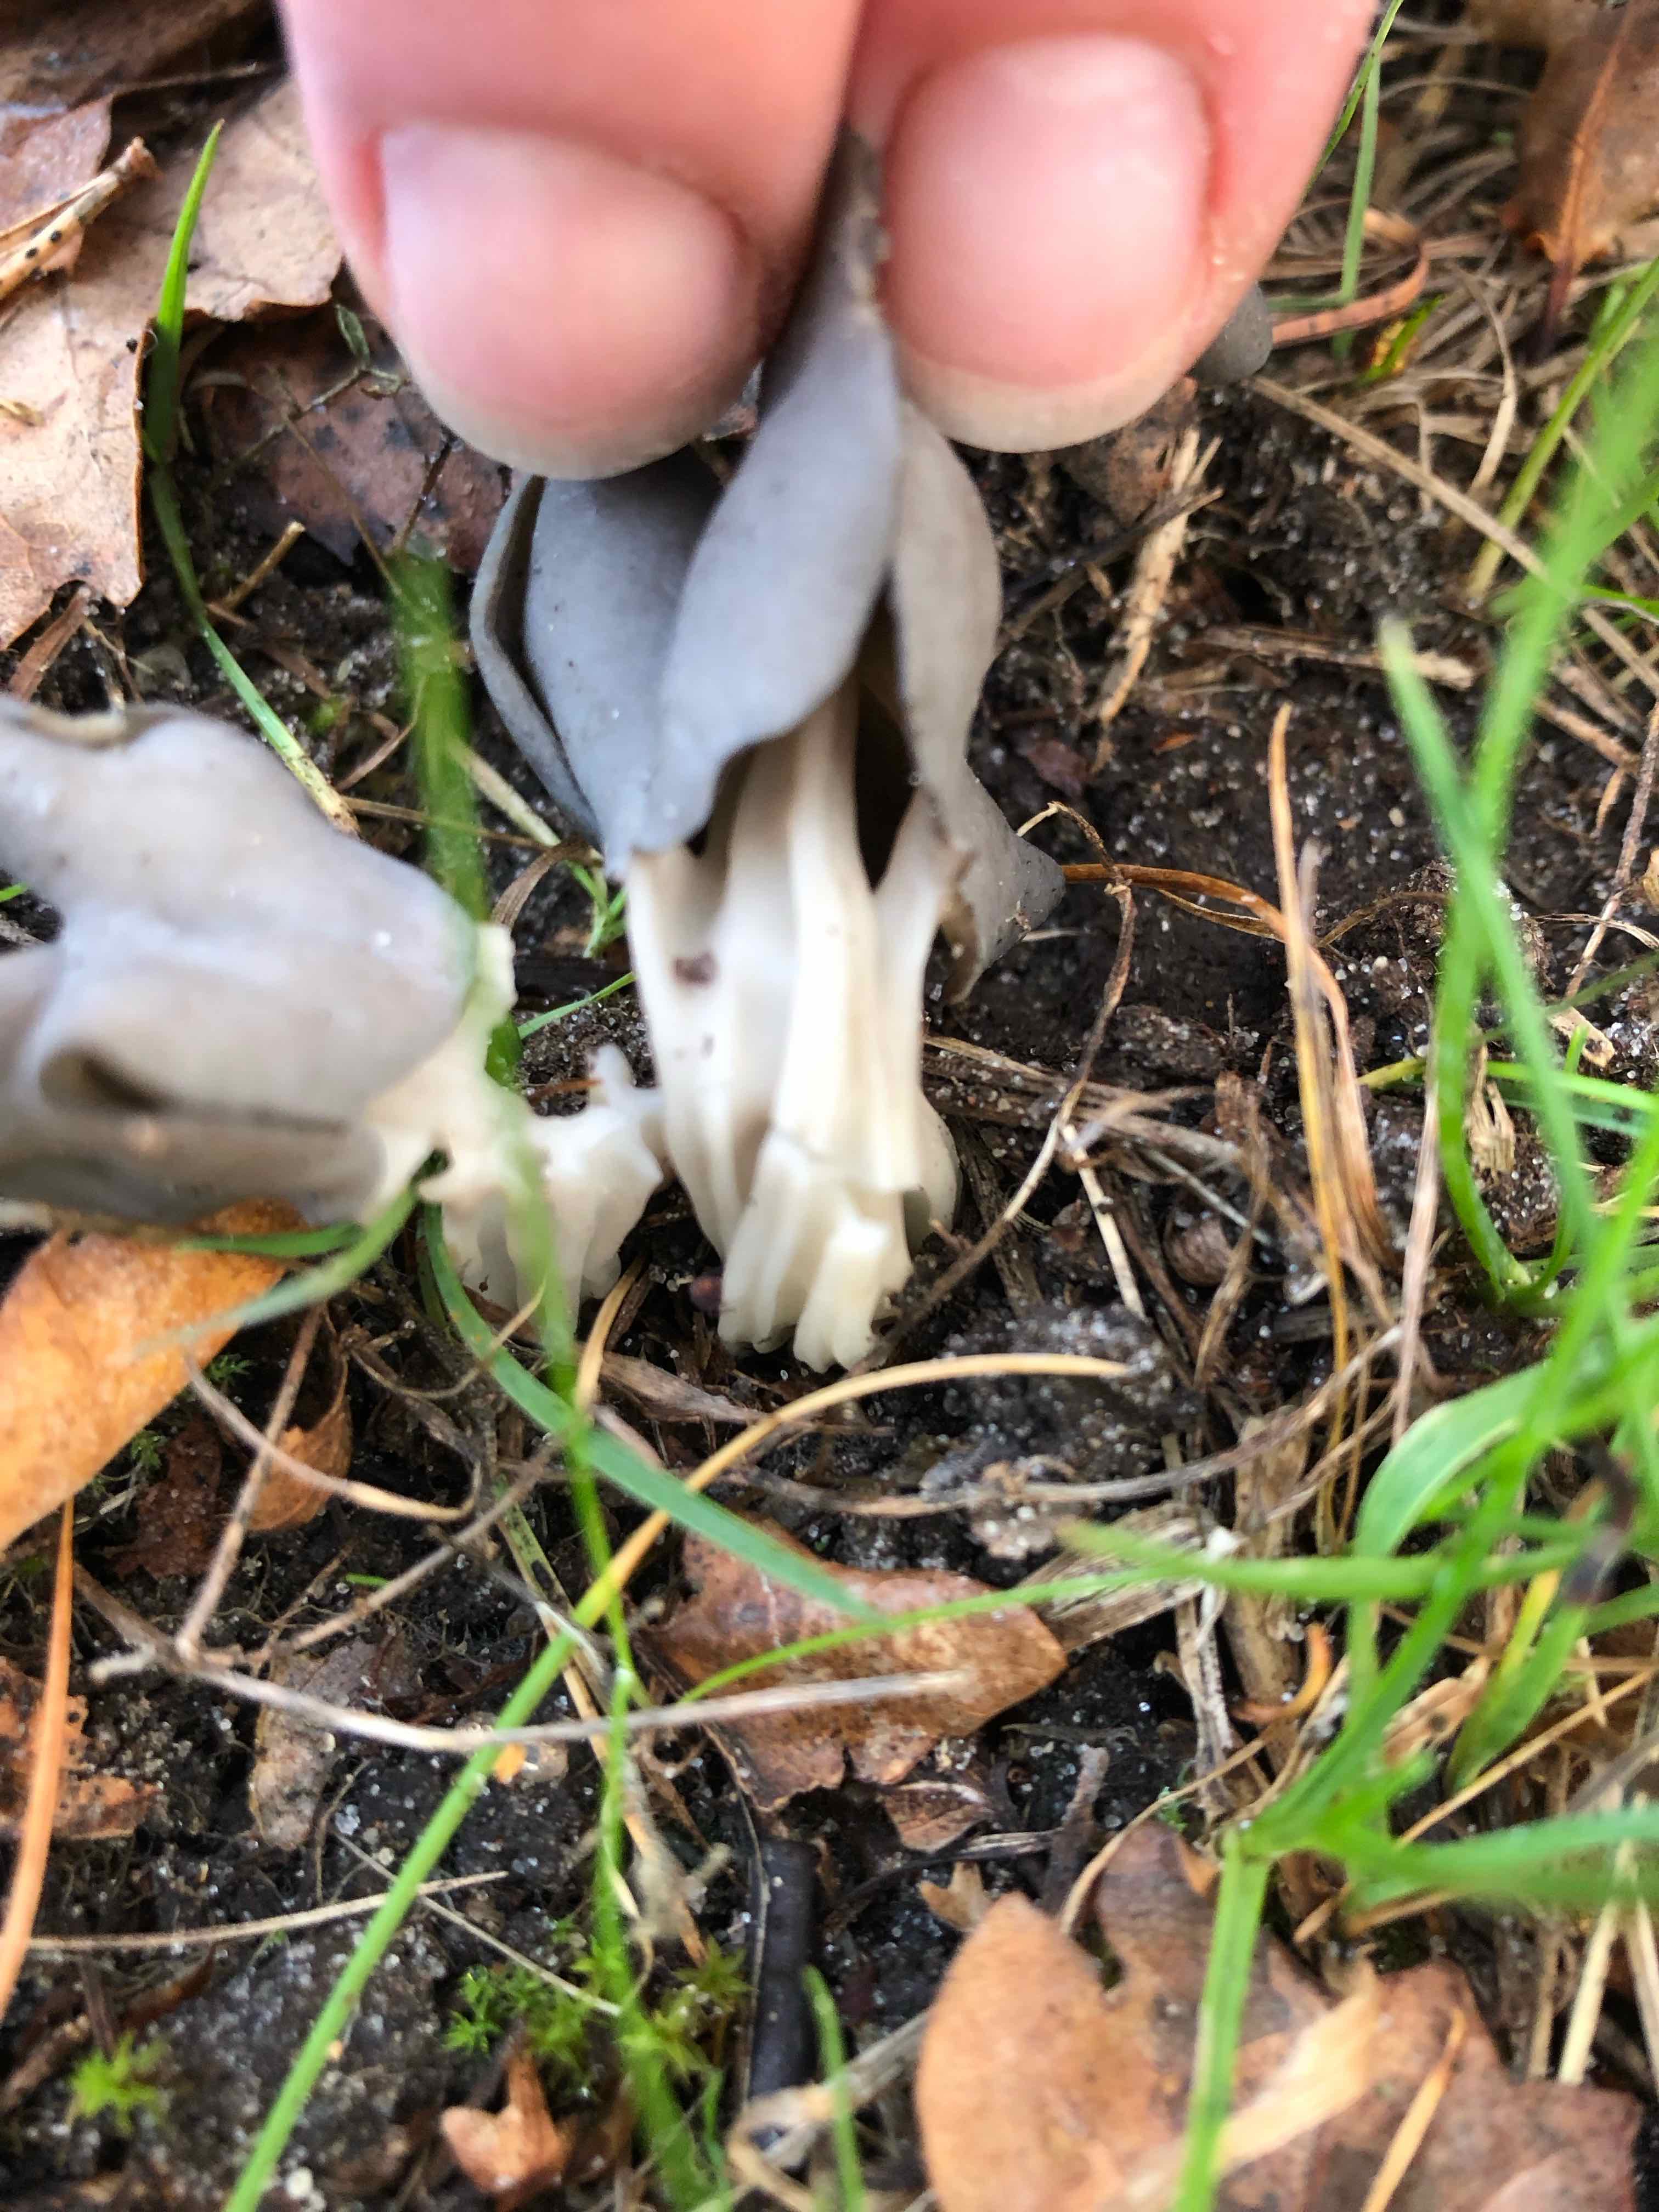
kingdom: Fungi
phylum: Ascomycota
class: Pezizomycetes
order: Pezizales
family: Helvellaceae
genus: Helvella
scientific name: Helvella lacunosa
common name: grubet foldhat
